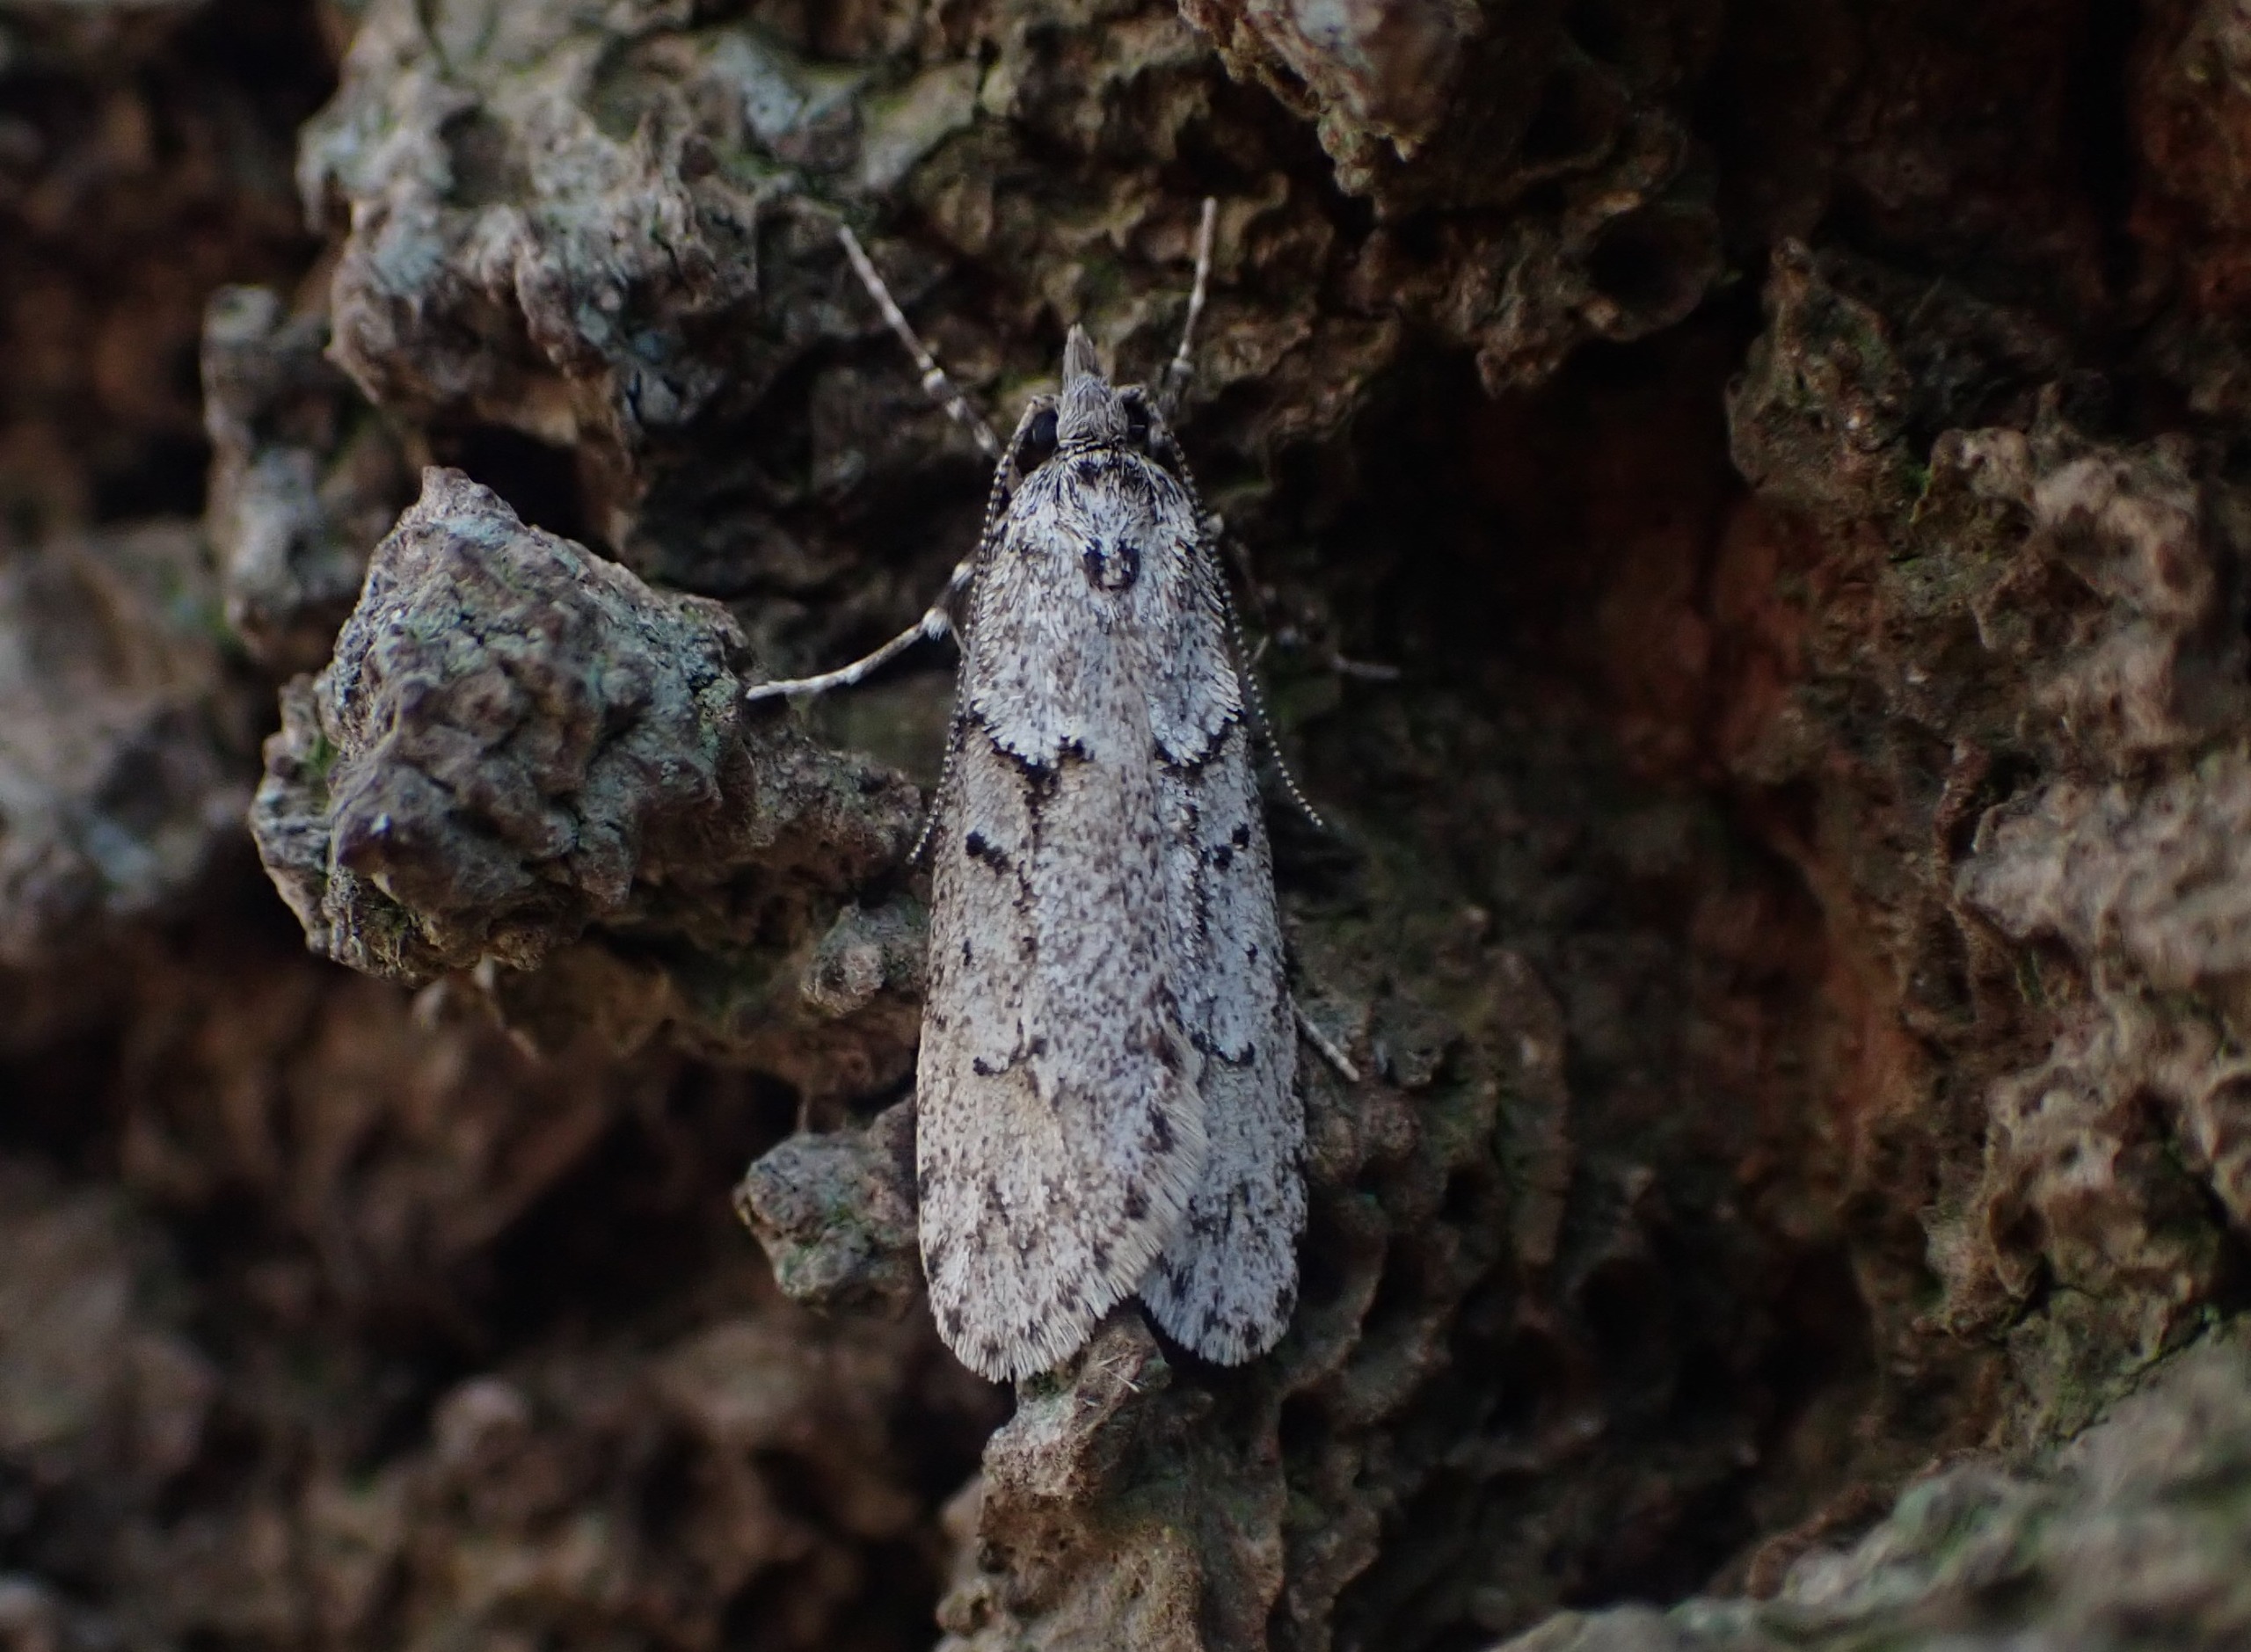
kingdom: Animalia
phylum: Arthropoda
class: Insecta
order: Lepidoptera
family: Lypusidae
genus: Diurnea
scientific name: Diurnea fagella
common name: Bøgeprydvinge
